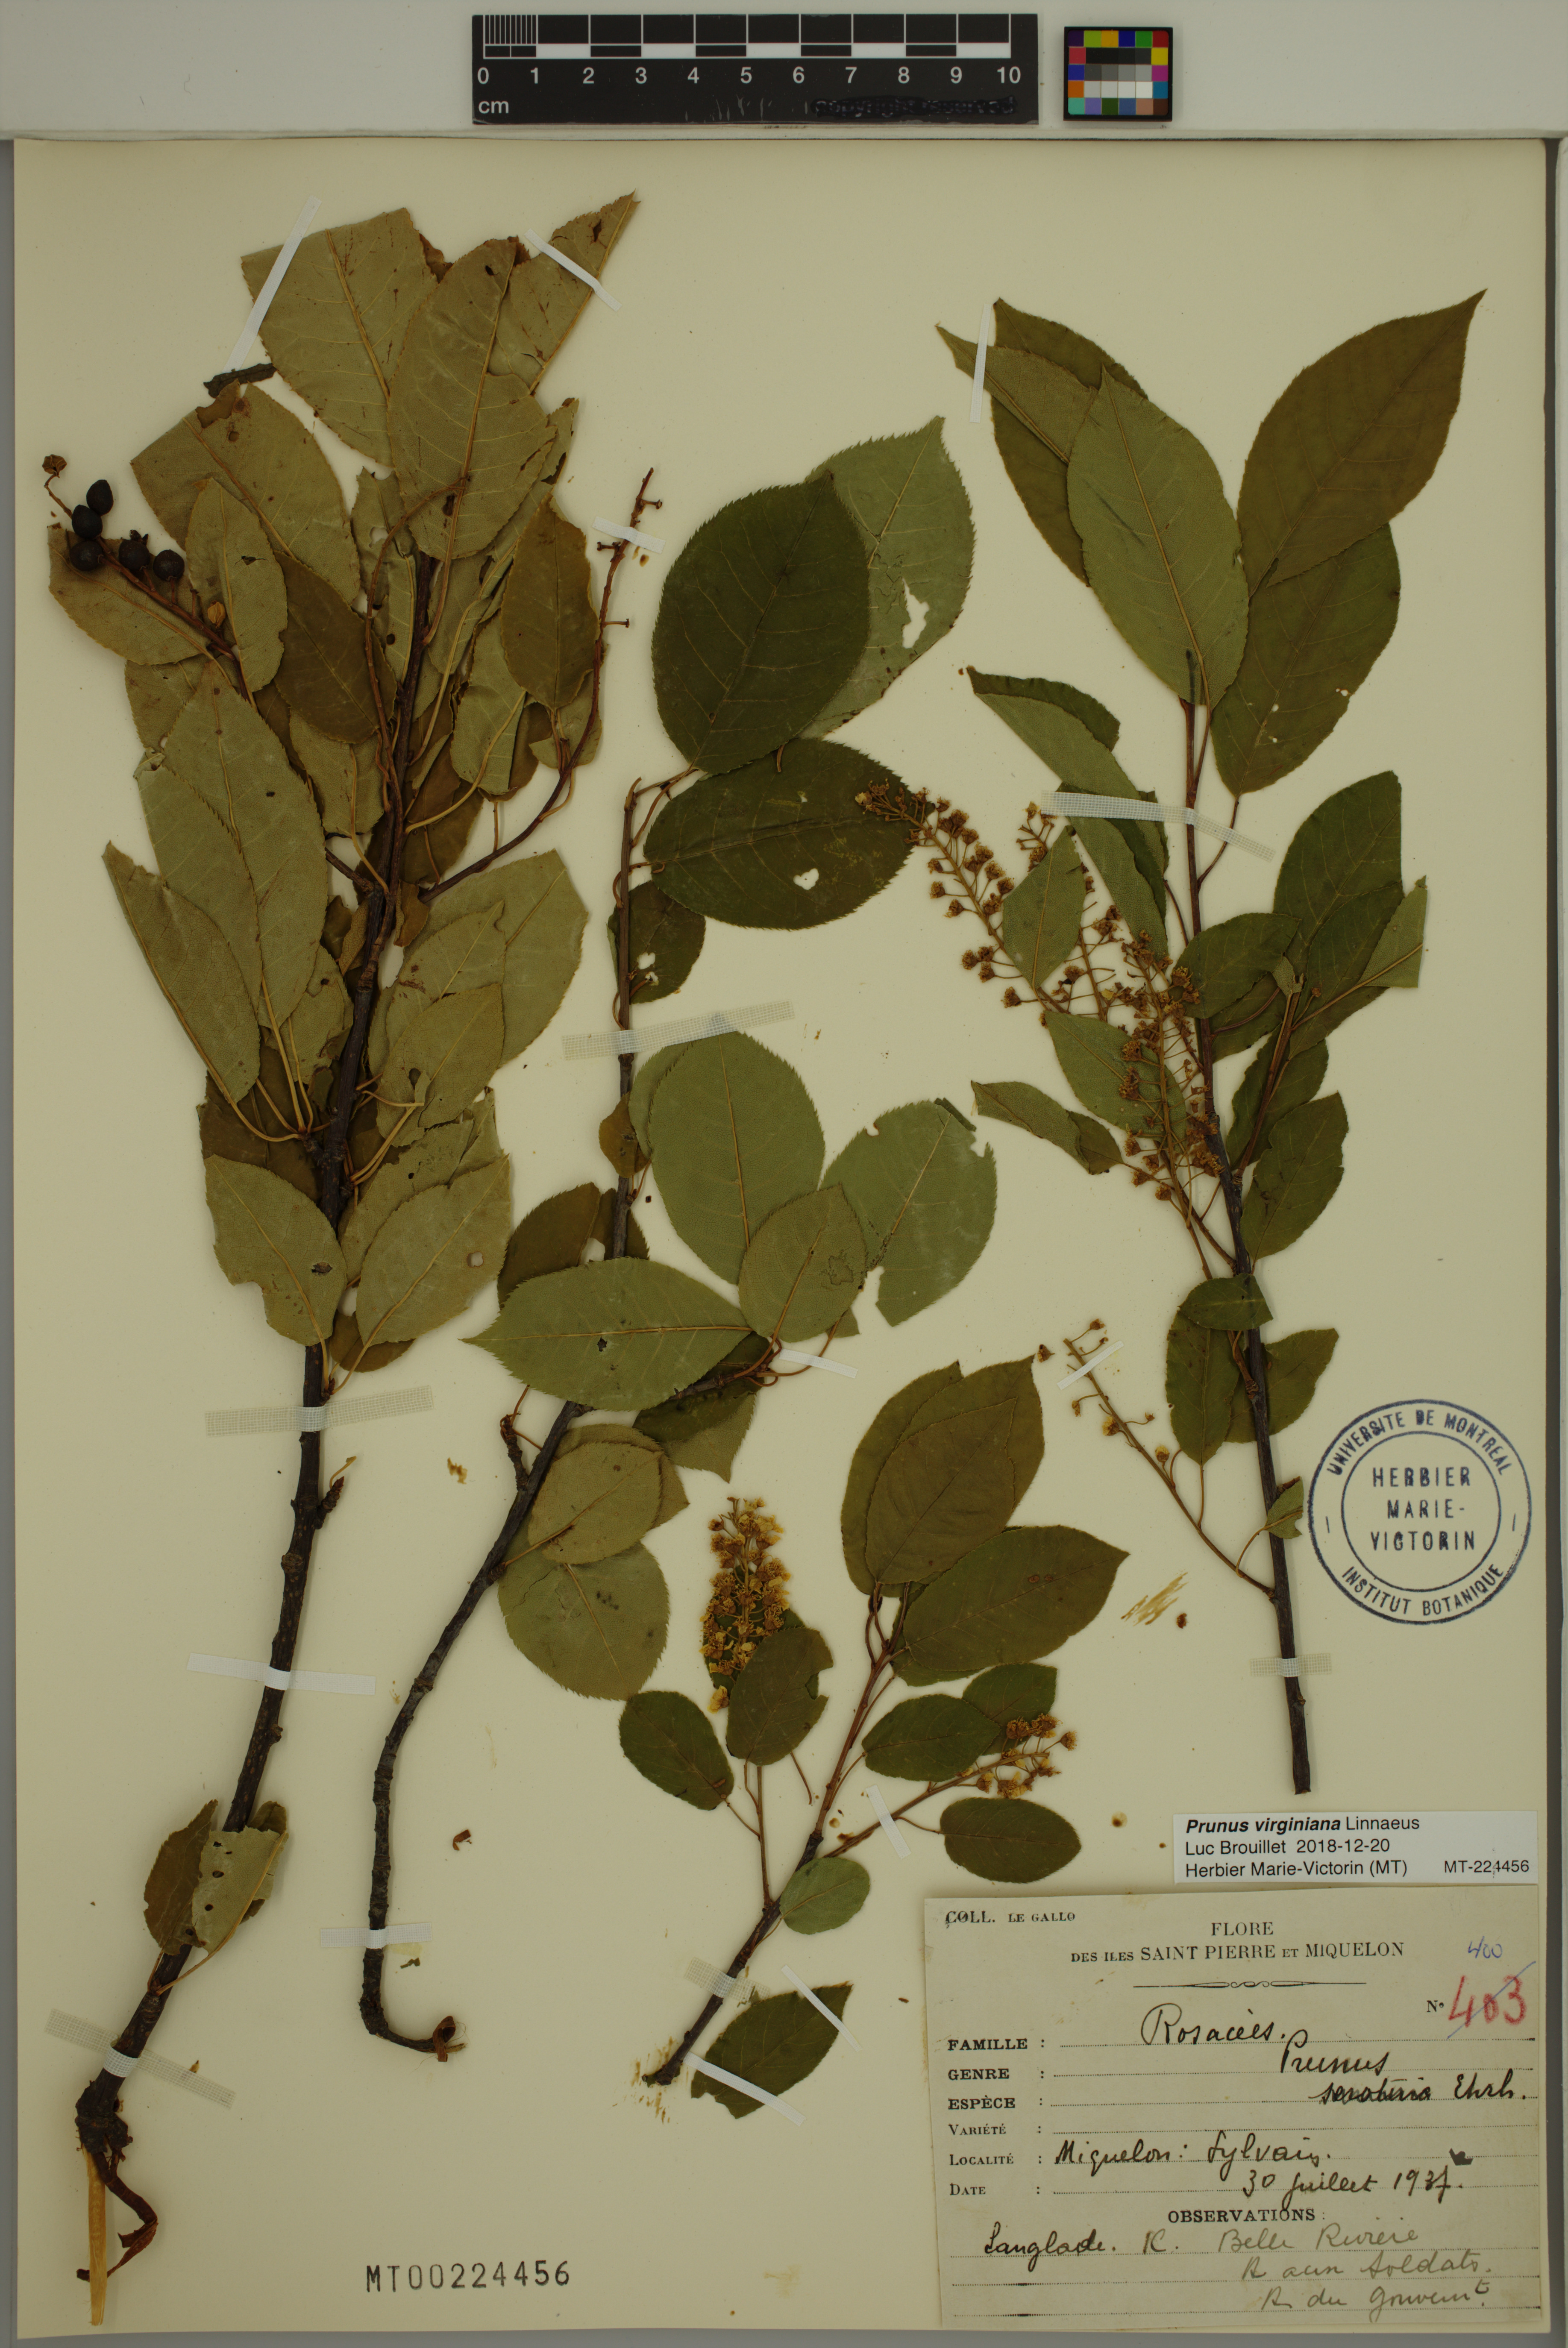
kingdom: Plantae
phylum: Tracheophyta
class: Magnoliopsida
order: Rosales
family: Rosaceae
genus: Prunus
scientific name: Prunus virginiana
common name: Chokecherry
